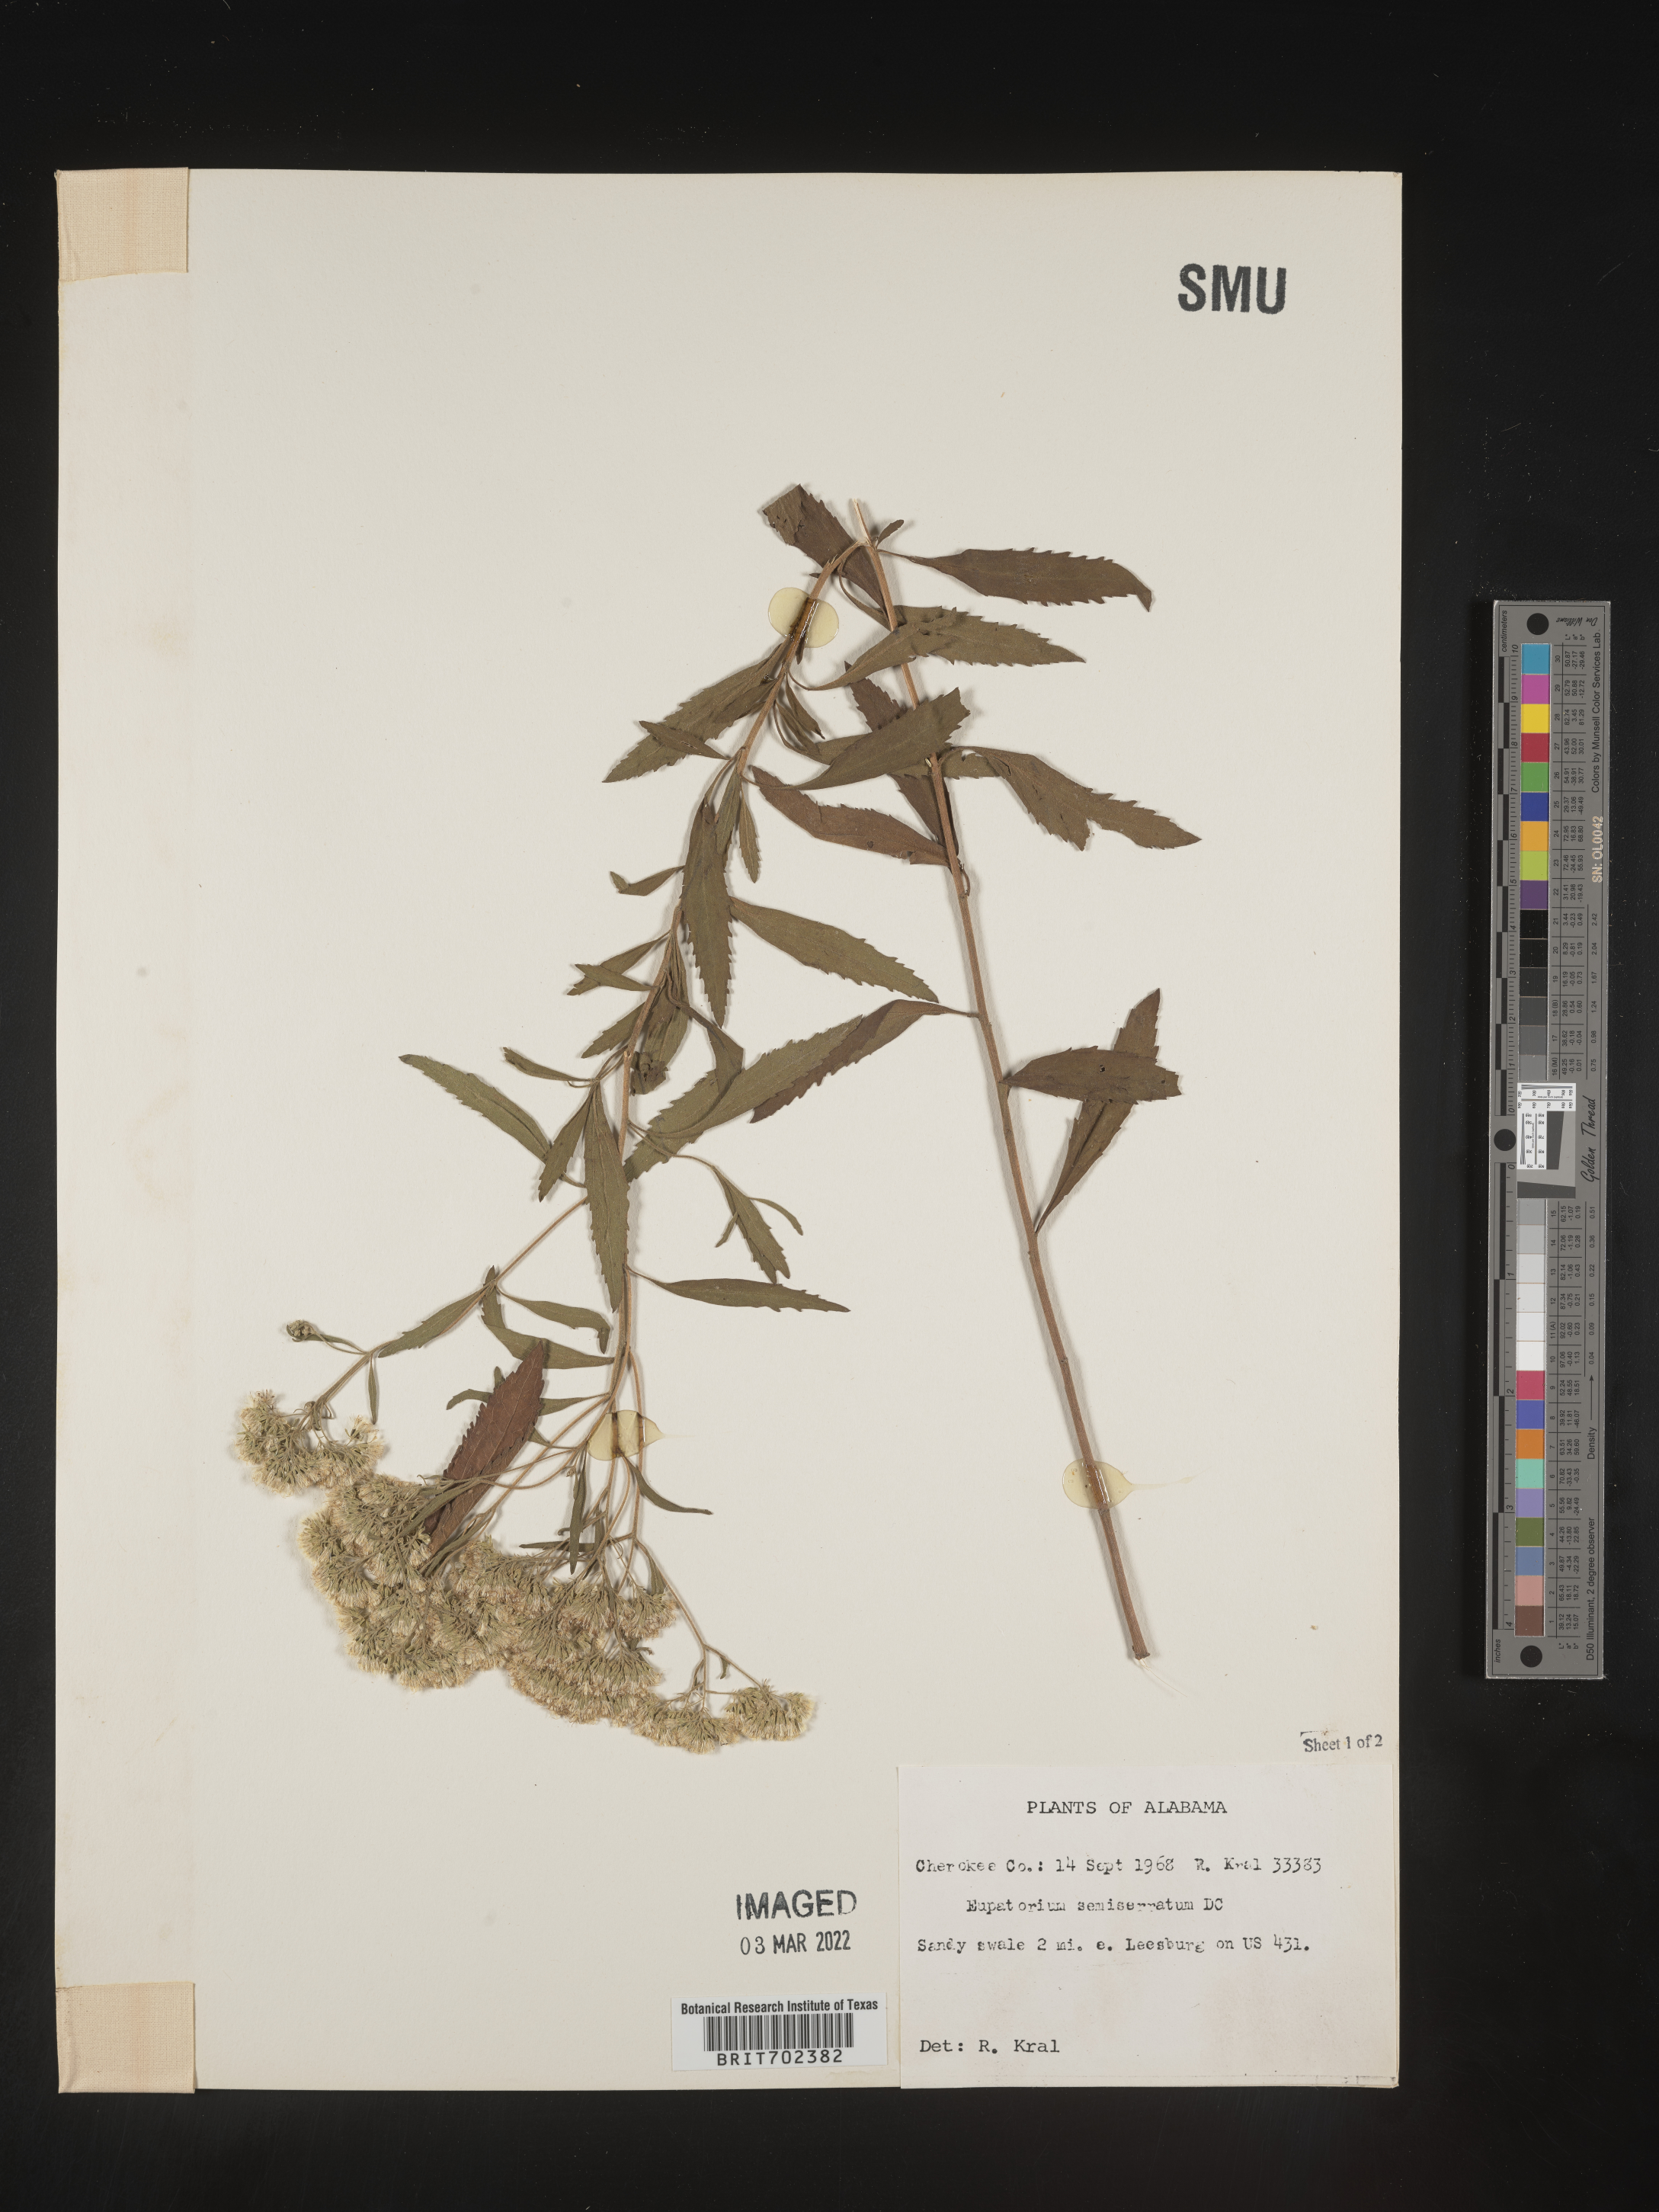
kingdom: Plantae
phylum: Tracheophyta
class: Magnoliopsida
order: Asterales
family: Asteraceae
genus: Eupatorium
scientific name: Eupatorium semiserratum
